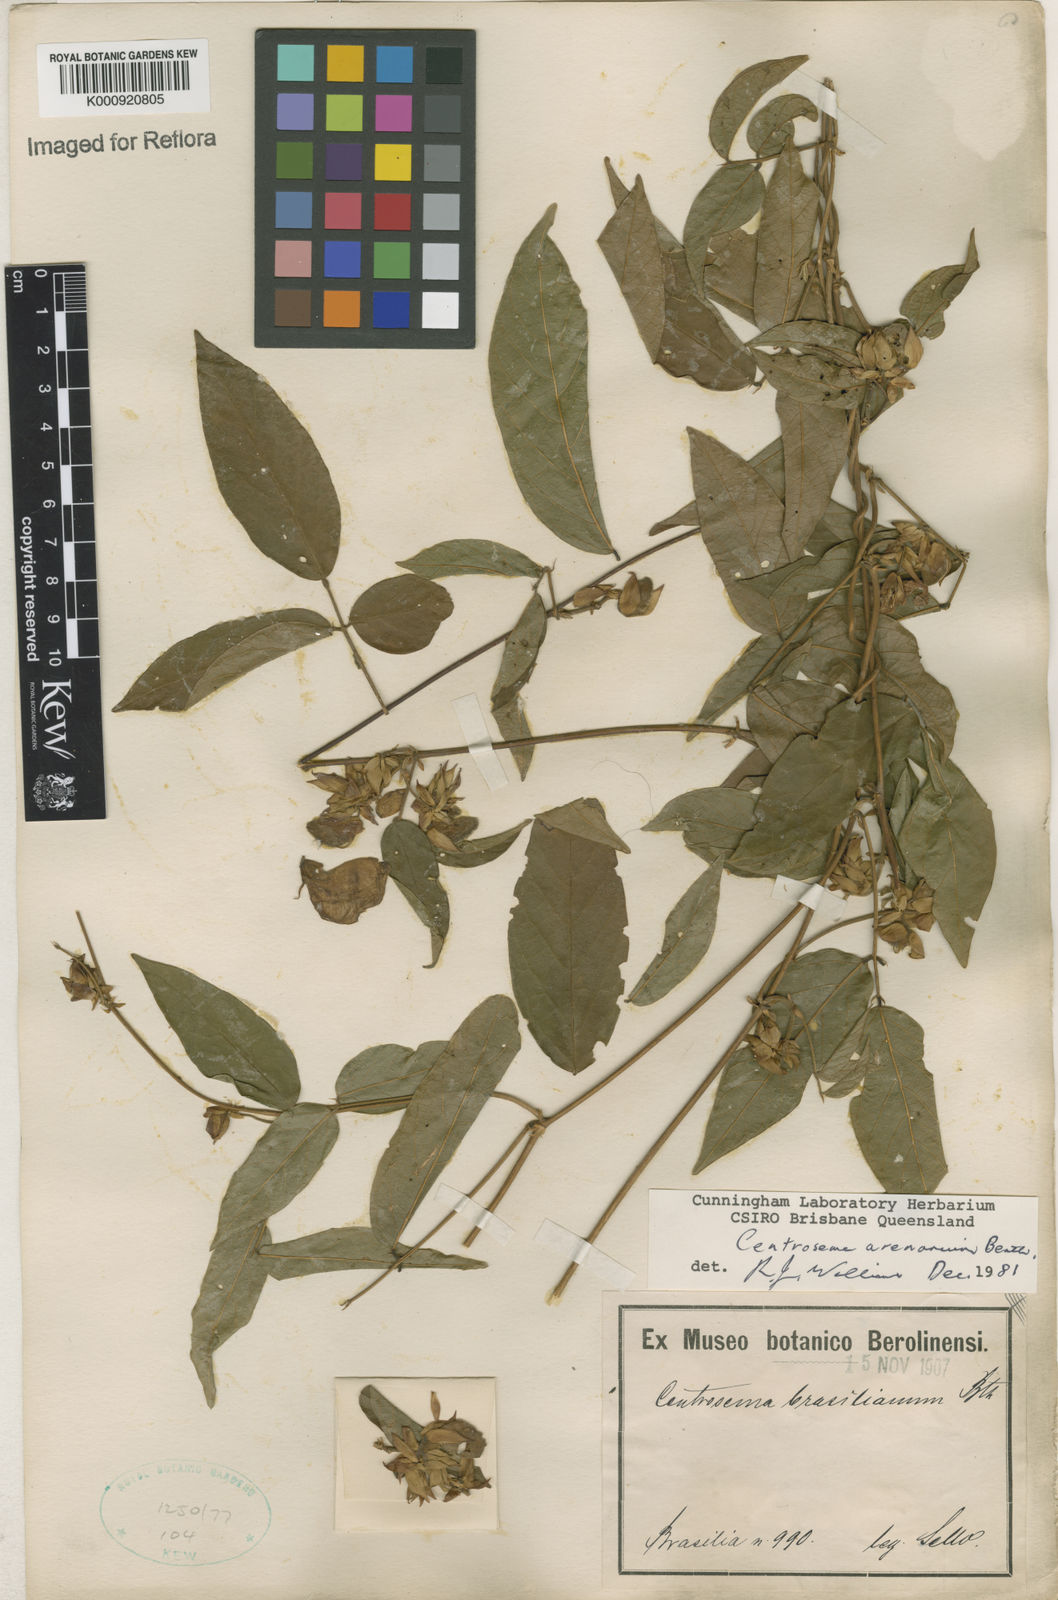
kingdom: Plantae
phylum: Tracheophyta
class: Magnoliopsida
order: Fabales
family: Fabaceae
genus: Centrosema
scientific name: Centrosema arenarium
